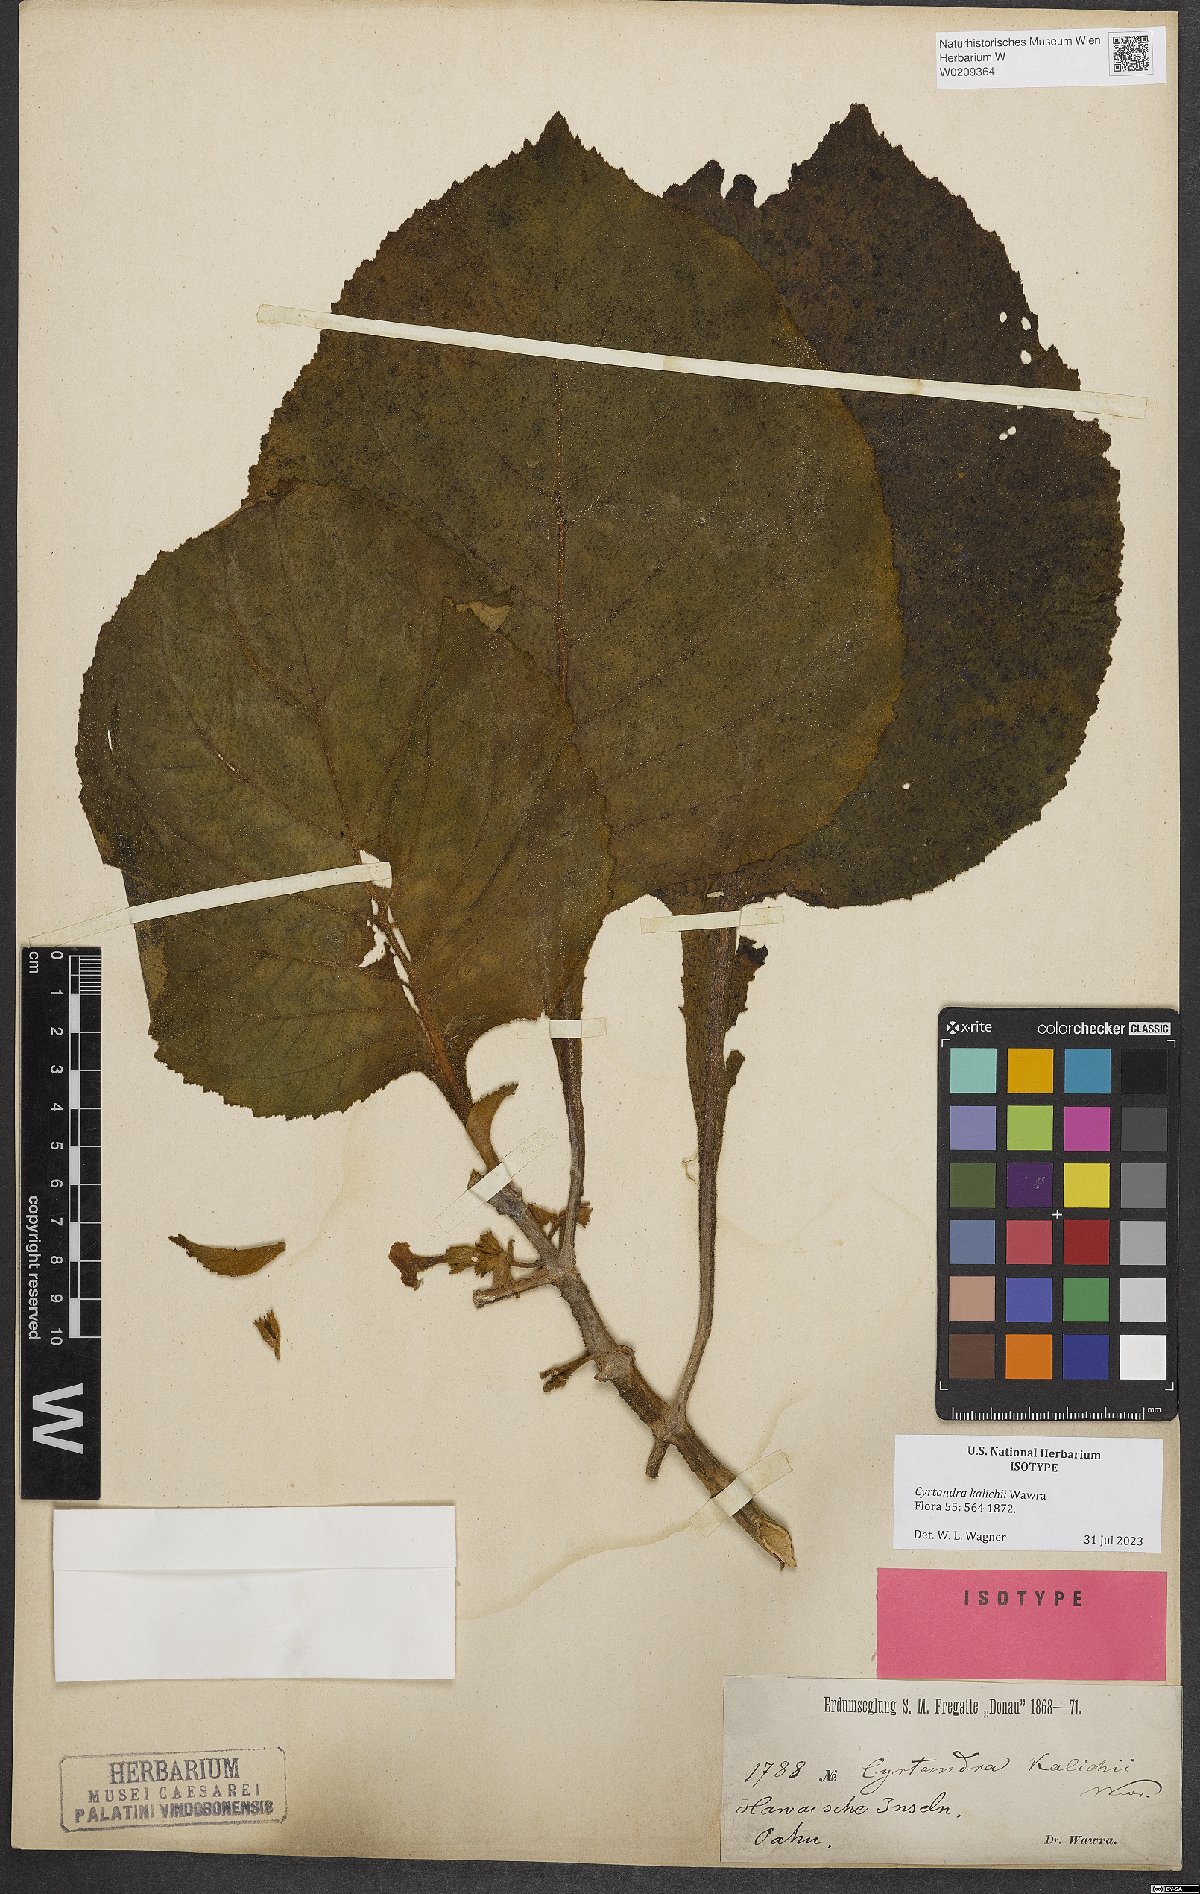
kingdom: Plantae
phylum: Tracheophyta
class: Magnoliopsida
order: Lamiales
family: Gesneriaceae
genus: Cyrtandra
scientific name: Cyrtandra kalichii
